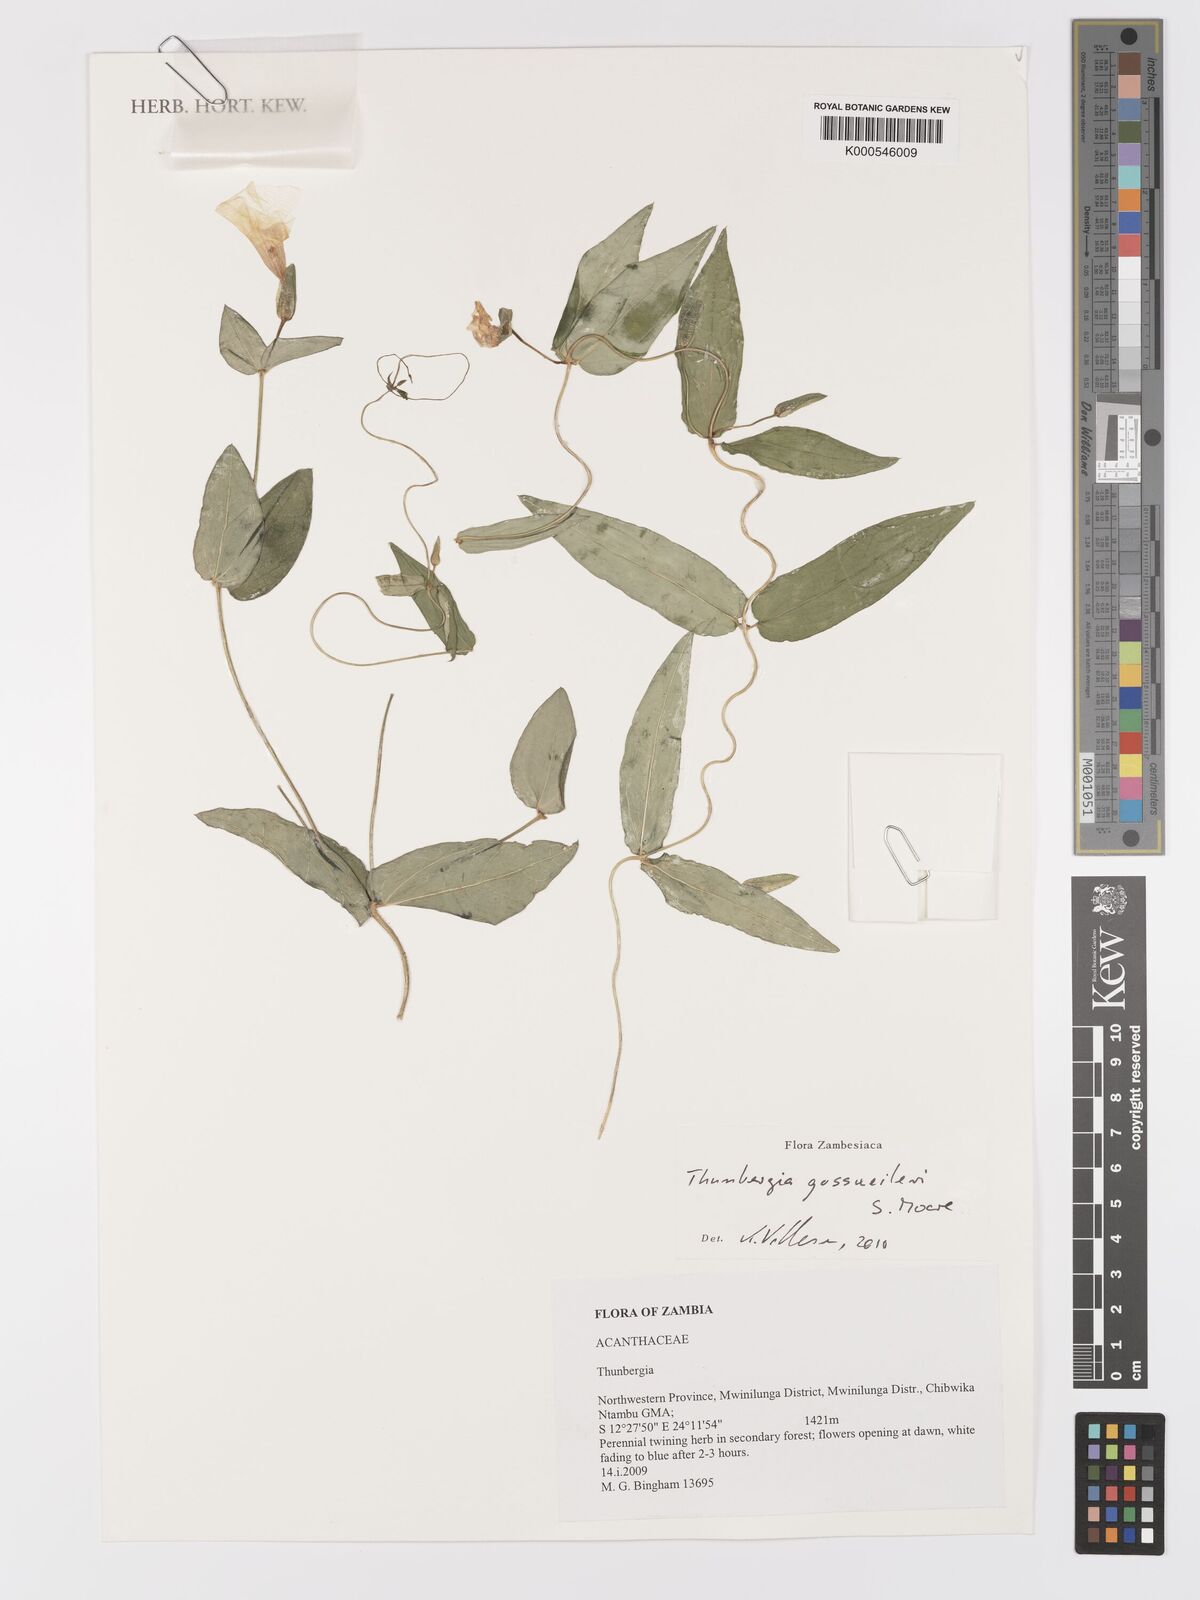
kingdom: Plantae
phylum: Tracheophyta
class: Magnoliopsida
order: Lamiales
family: Acanthaceae
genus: Thunbergia
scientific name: Thunbergia gossweileri
